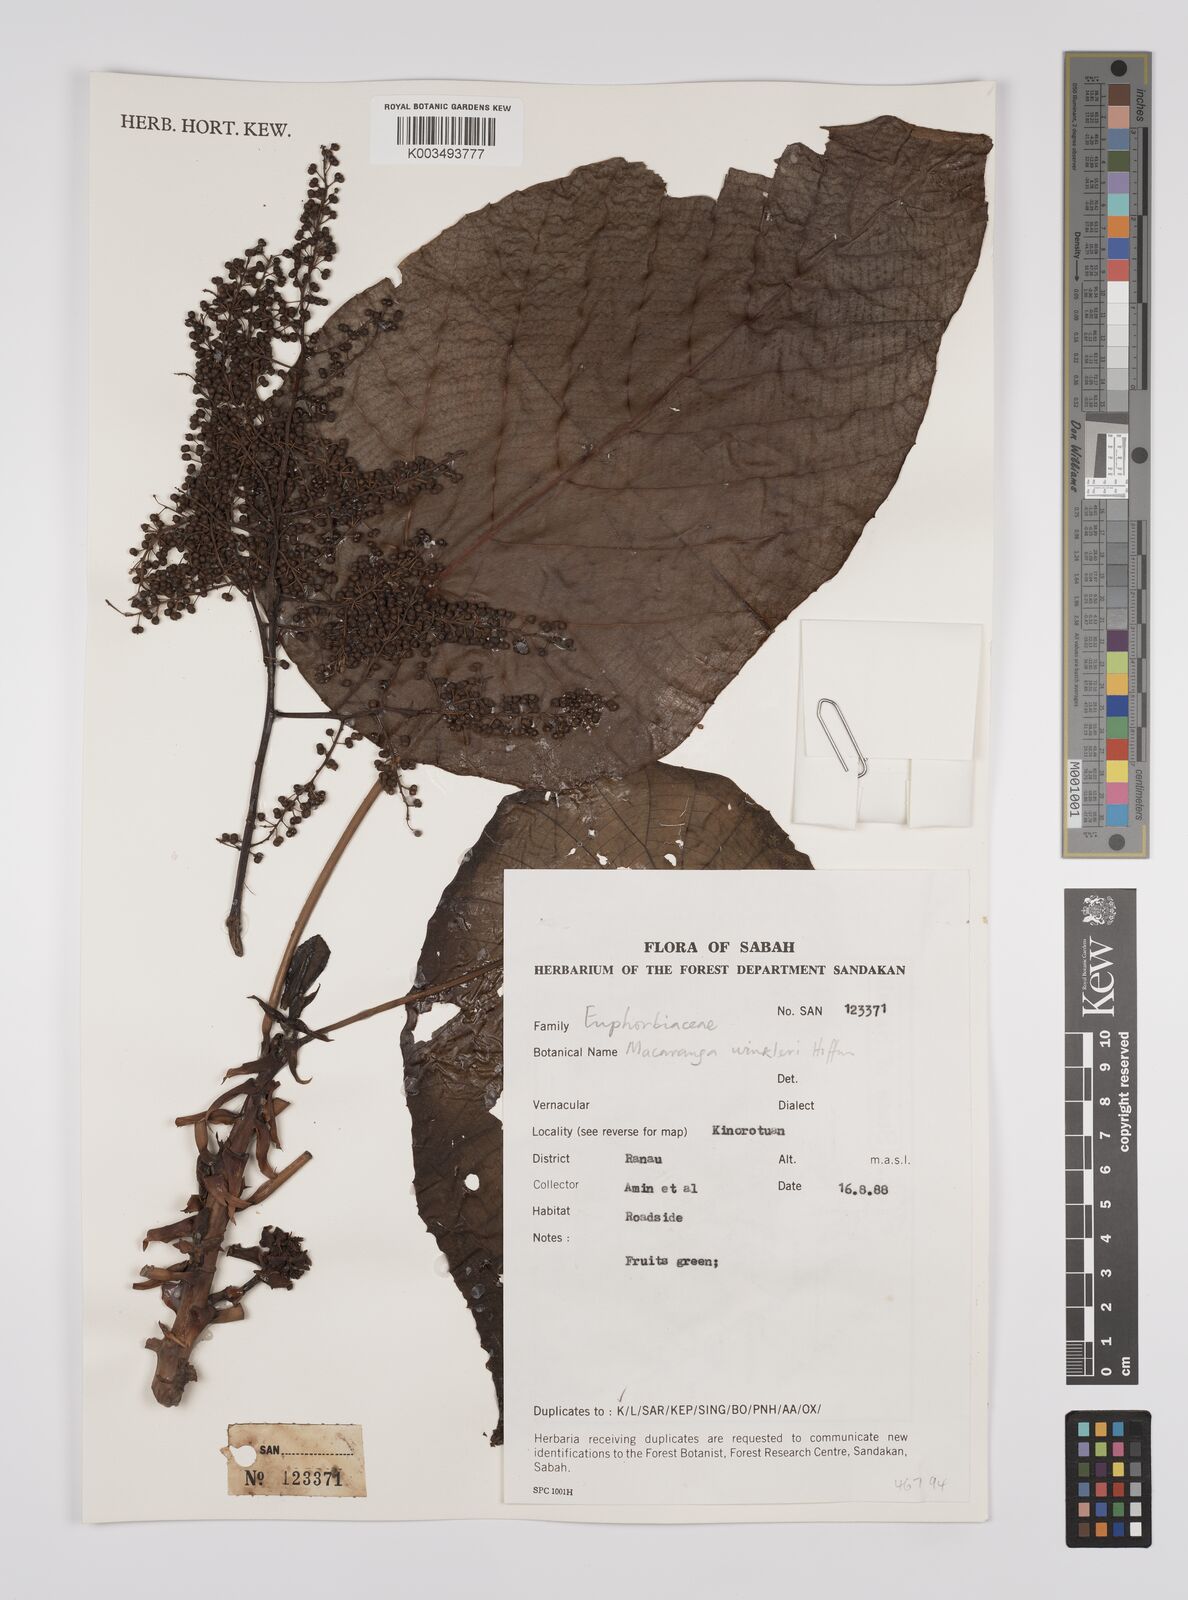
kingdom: Plantae
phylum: Tracheophyta
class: Magnoliopsida
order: Malpighiales
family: Euphorbiaceae
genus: Macaranga
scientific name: Macaranga winkleri
